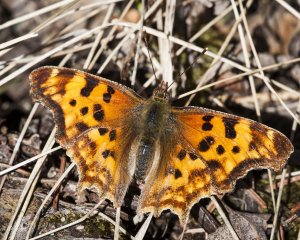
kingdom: Animalia
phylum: Arthropoda
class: Insecta
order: Lepidoptera
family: Nymphalidae
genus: Polygonia
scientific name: Polygonia satyrus
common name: Satyr Comma
